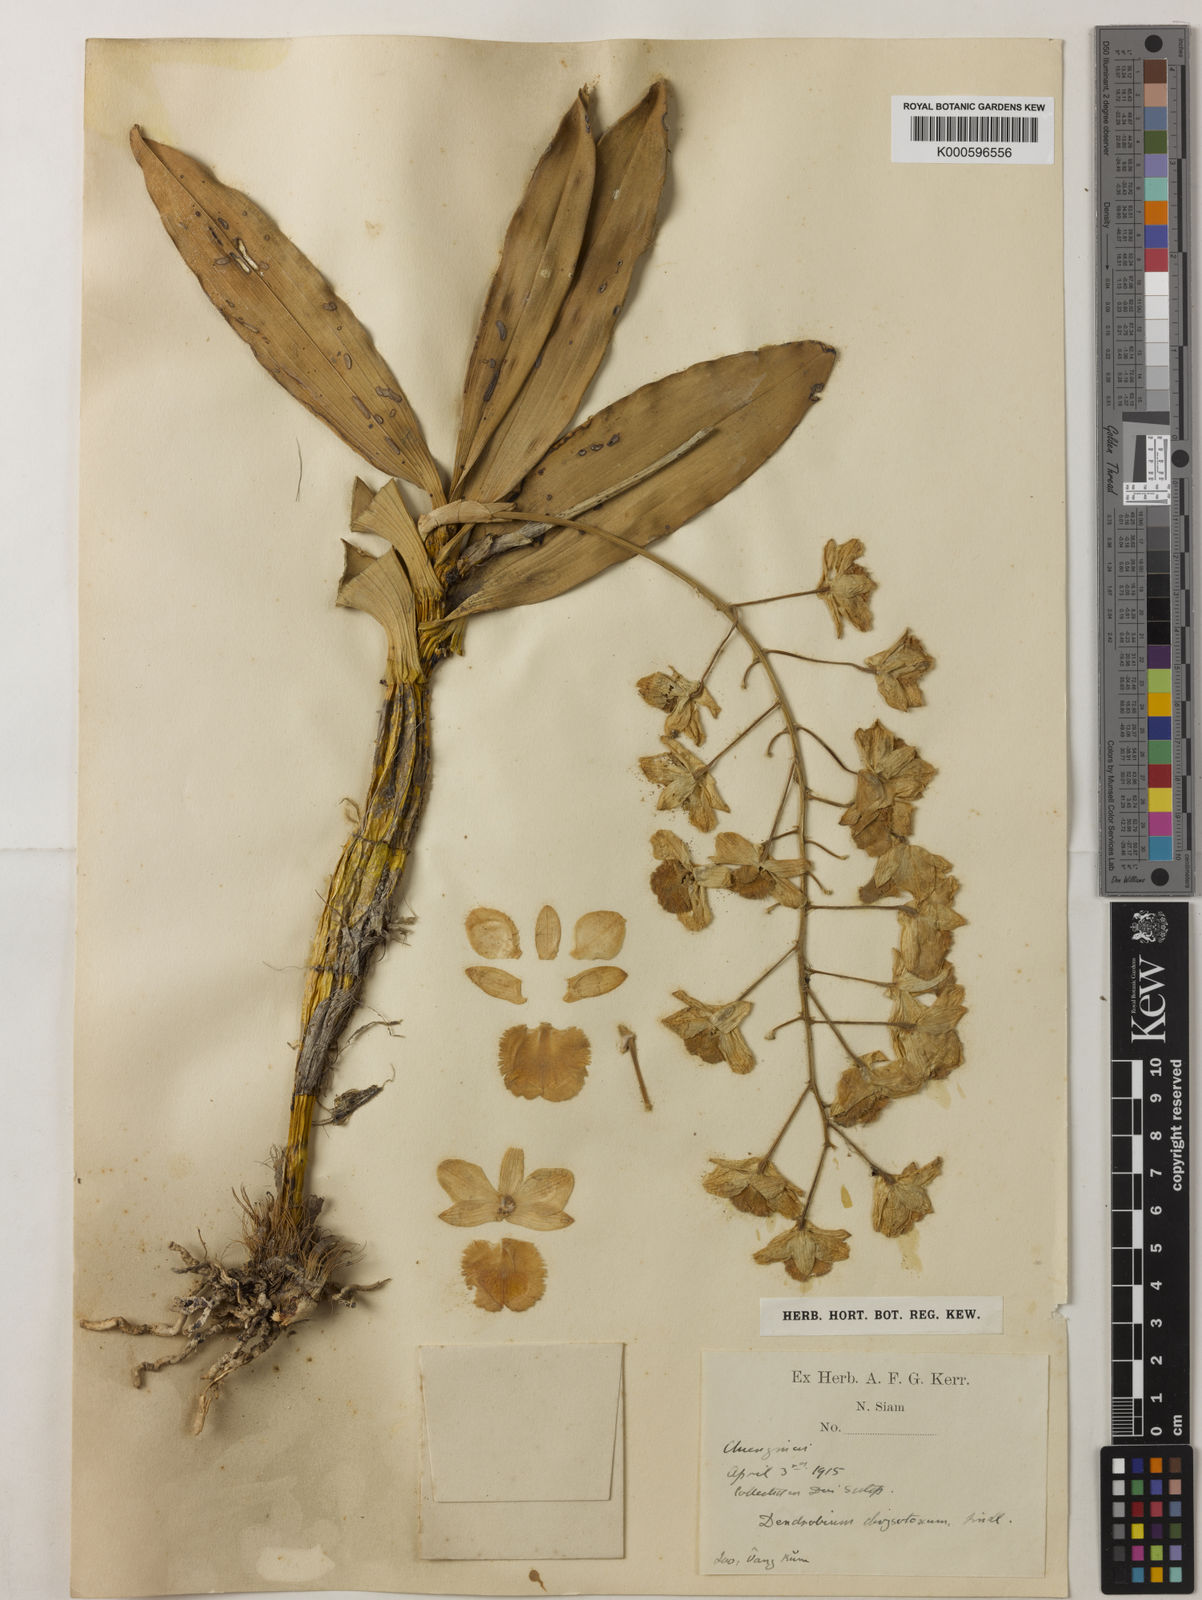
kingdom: Plantae
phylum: Tracheophyta
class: Liliopsida
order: Asparagales
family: Orchidaceae
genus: Dendrobium
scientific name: Dendrobium chrysotoxum
